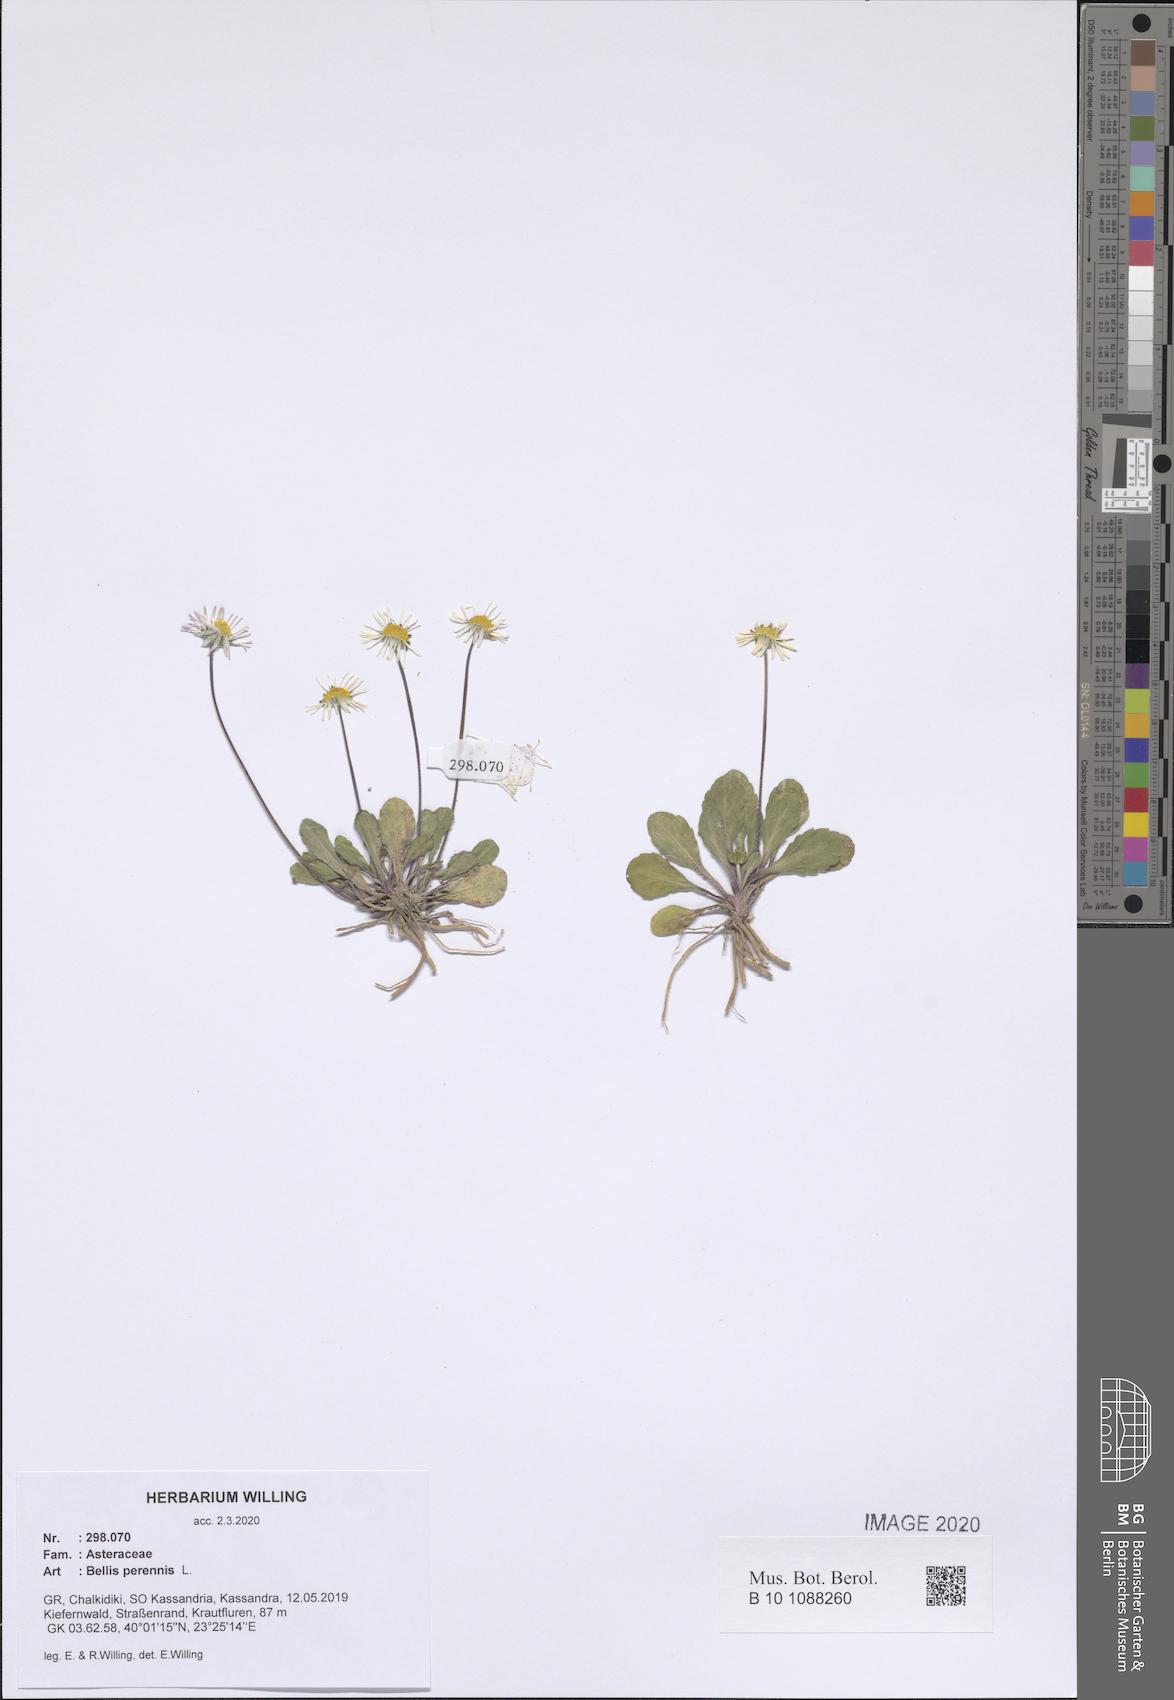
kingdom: Plantae
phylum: Tracheophyta
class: Magnoliopsida
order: Asterales
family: Asteraceae
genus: Bellis
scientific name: Bellis perennis
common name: Lawndaisy
